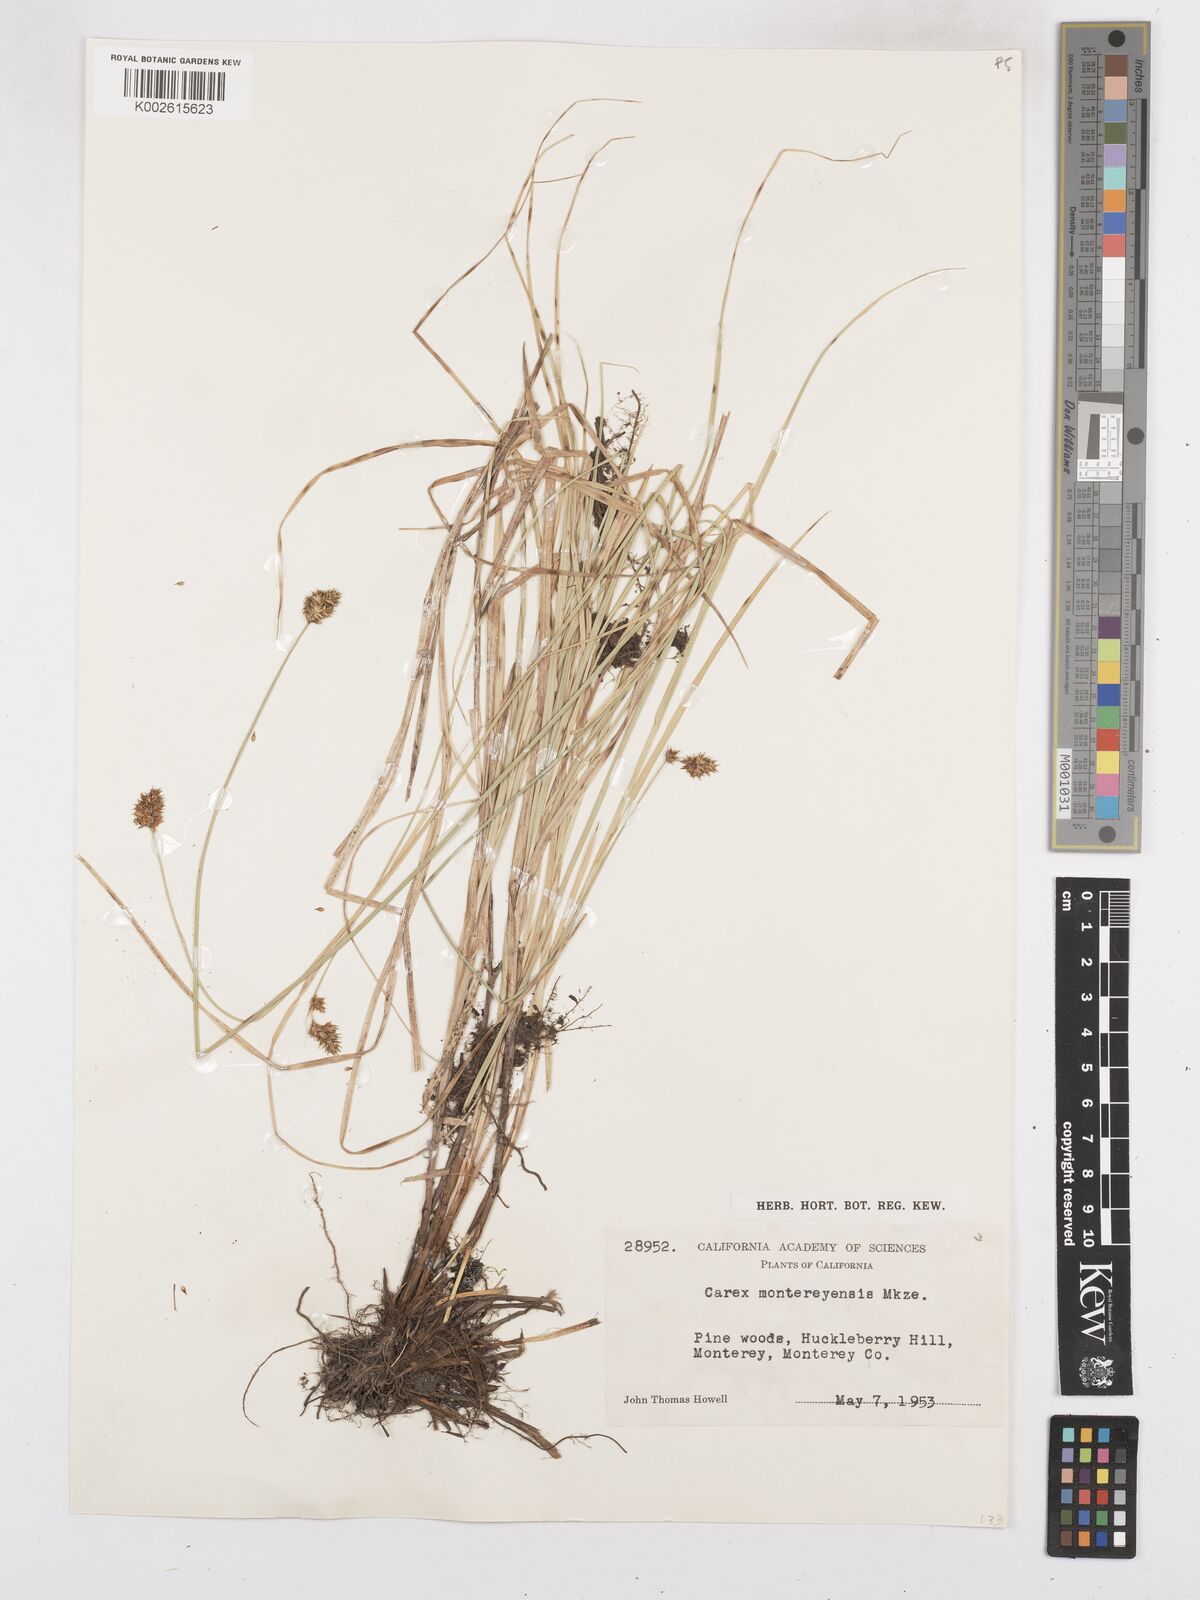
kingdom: Plantae
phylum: Tracheophyta
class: Liliopsida
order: Poales
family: Cyperaceae
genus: Carex
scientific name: Carex harfordii
